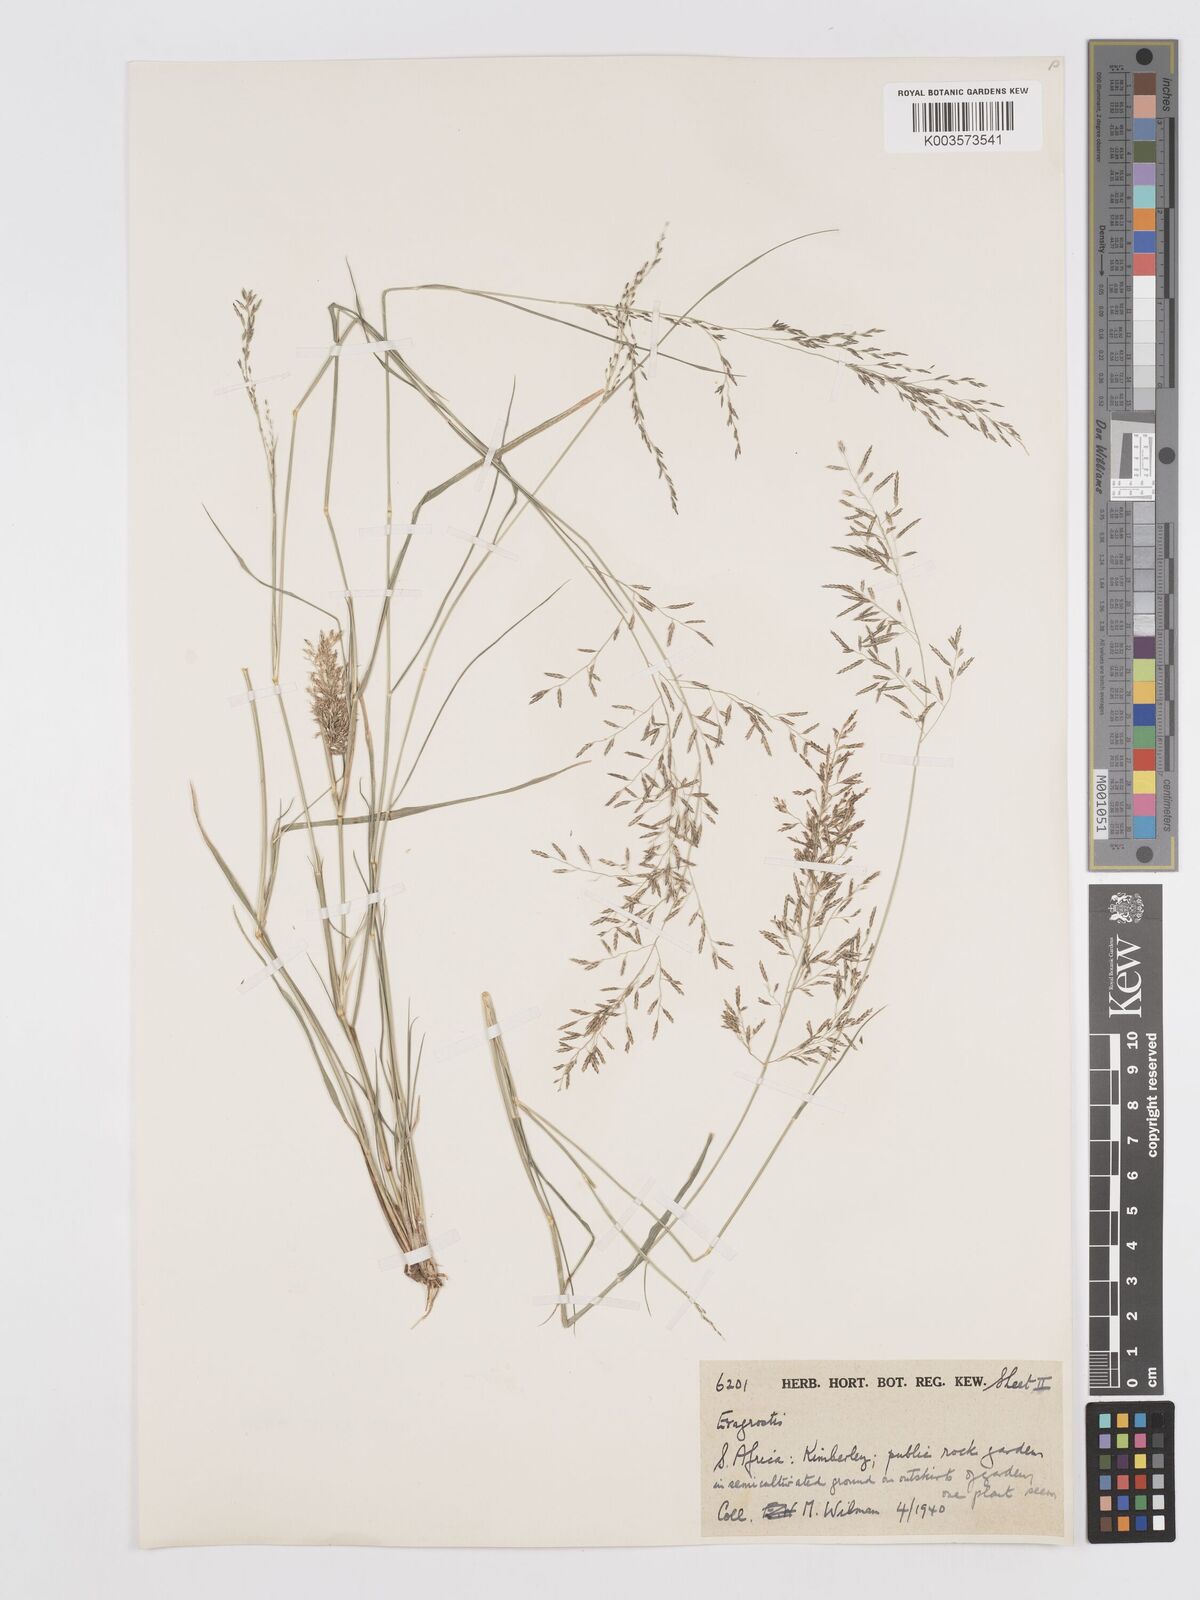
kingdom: Plantae
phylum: Tracheophyta
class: Liliopsida
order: Poales
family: Poaceae
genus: Eragrostis
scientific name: Eragrostis lehmanniana
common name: Lehmann lovegrass
